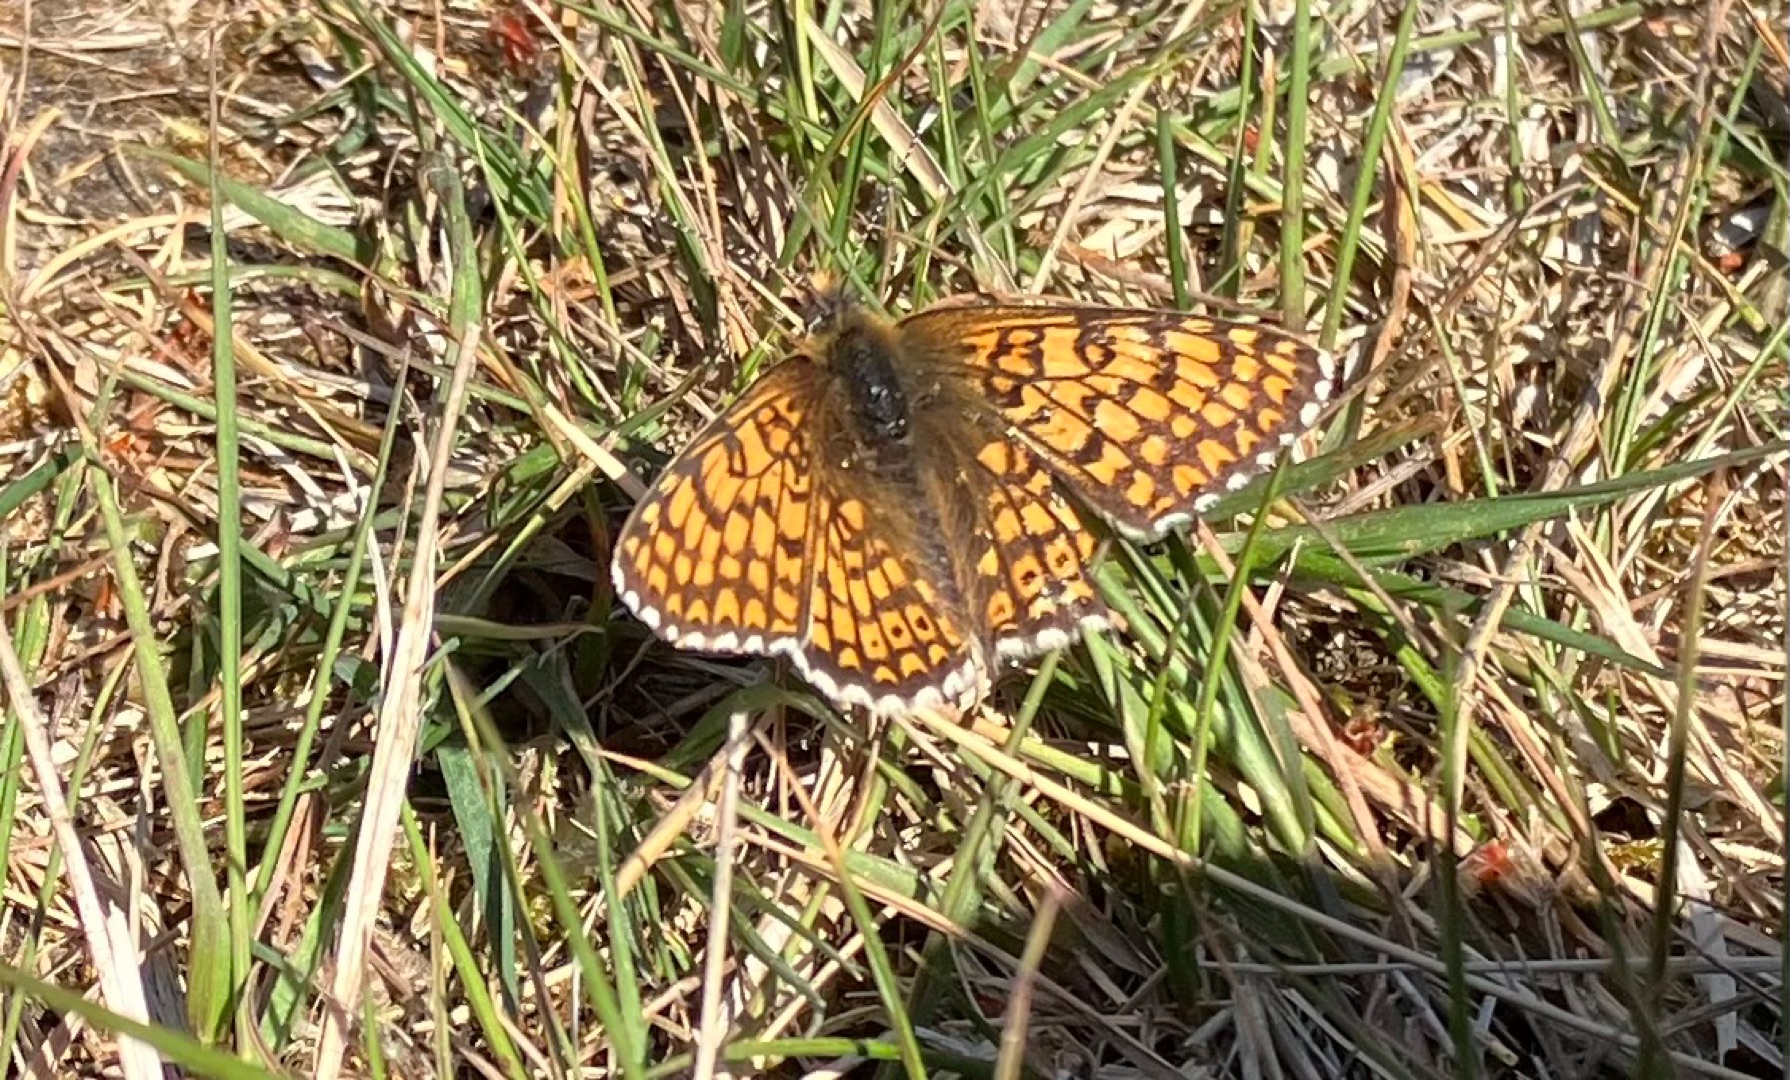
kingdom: Animalia
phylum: Arthropoda
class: Insecta
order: Lepidoptera
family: Nymphalidae
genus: Melitaea
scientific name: Melitaea cinxia
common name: Okkergul pletvinge
